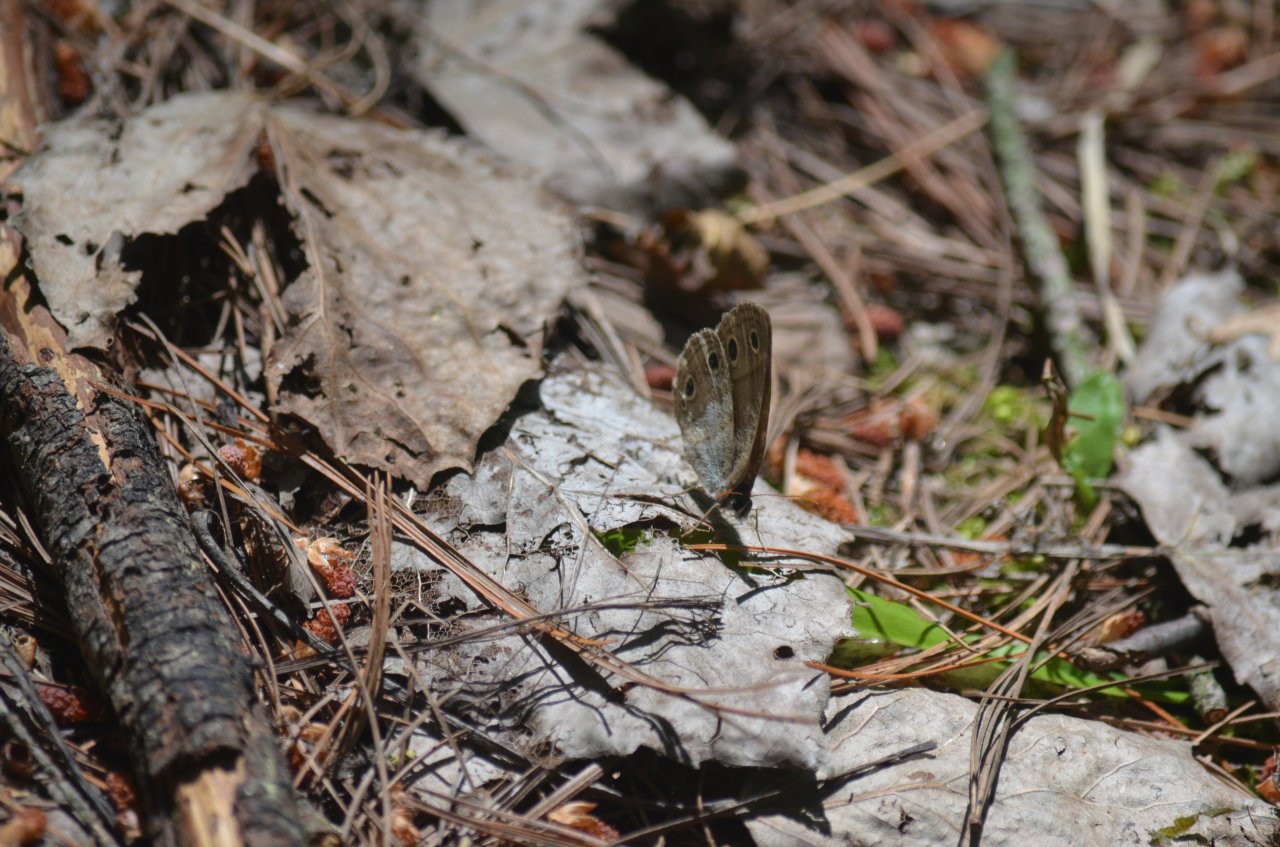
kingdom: Animalia
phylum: Arthropoda
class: Insecta
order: Lepidoptera
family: Nymphalidae
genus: Euptychia
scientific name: Euptychia cymela
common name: Little Wood Satyr
